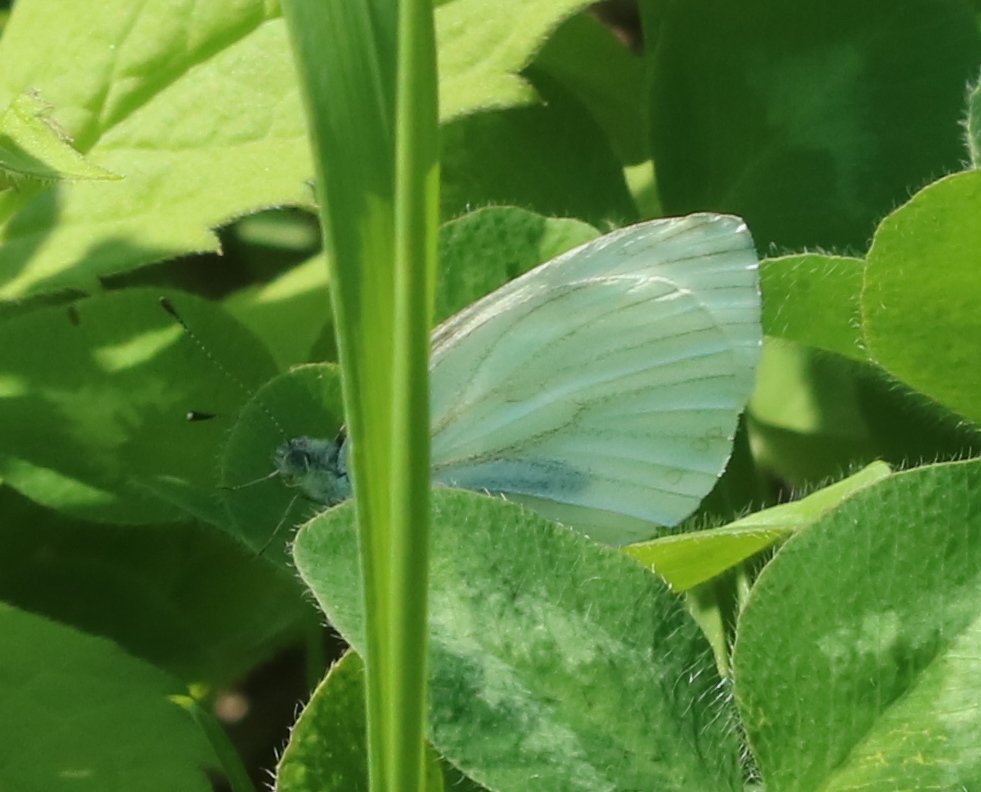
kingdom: Animalia
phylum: Arthropoda
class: Insecta
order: Lepidoptera
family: Pieridae
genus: Pieris
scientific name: Pieris oleracea
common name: Mustard White
